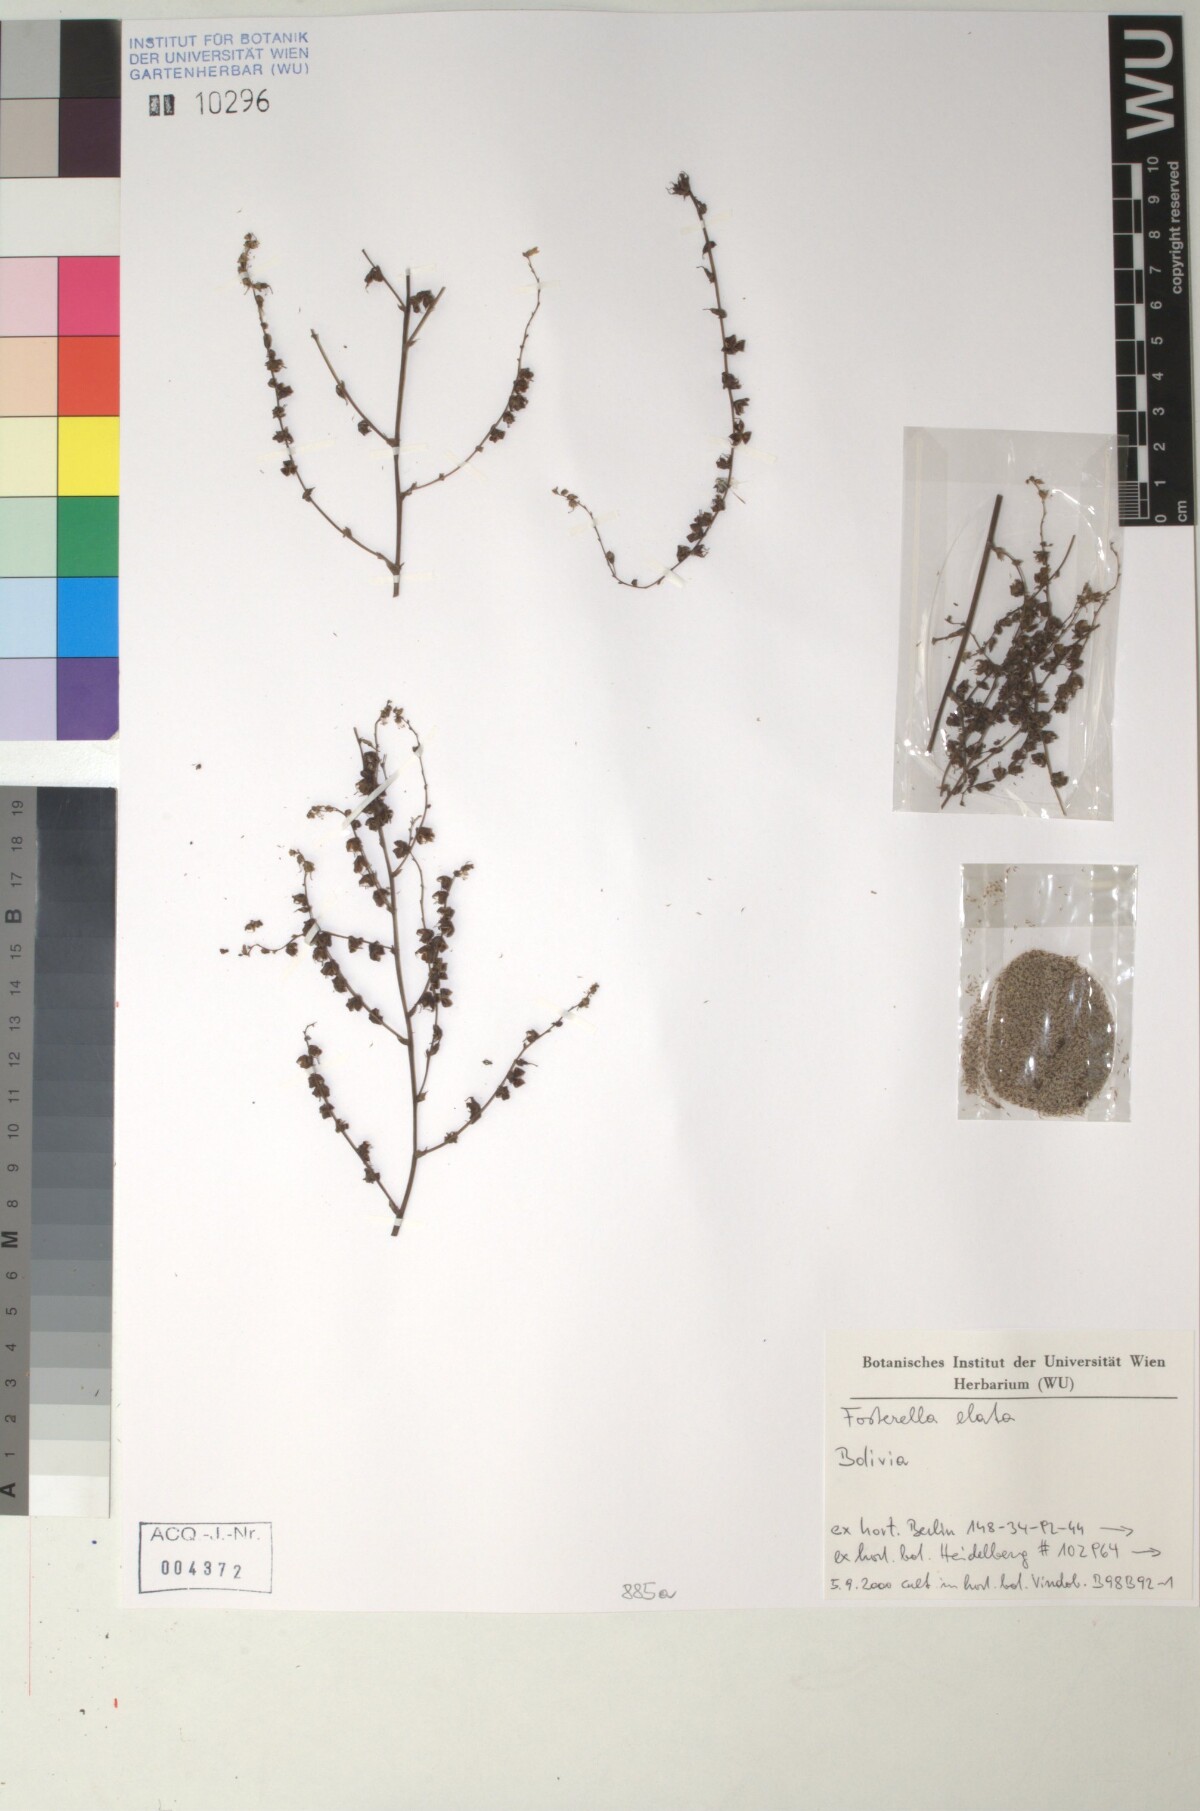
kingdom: Plantae
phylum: Tracheophyta
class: Liliopsida
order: Poales
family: Bromeliaceae
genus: Fosterella
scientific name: Fosterella rusbyi
